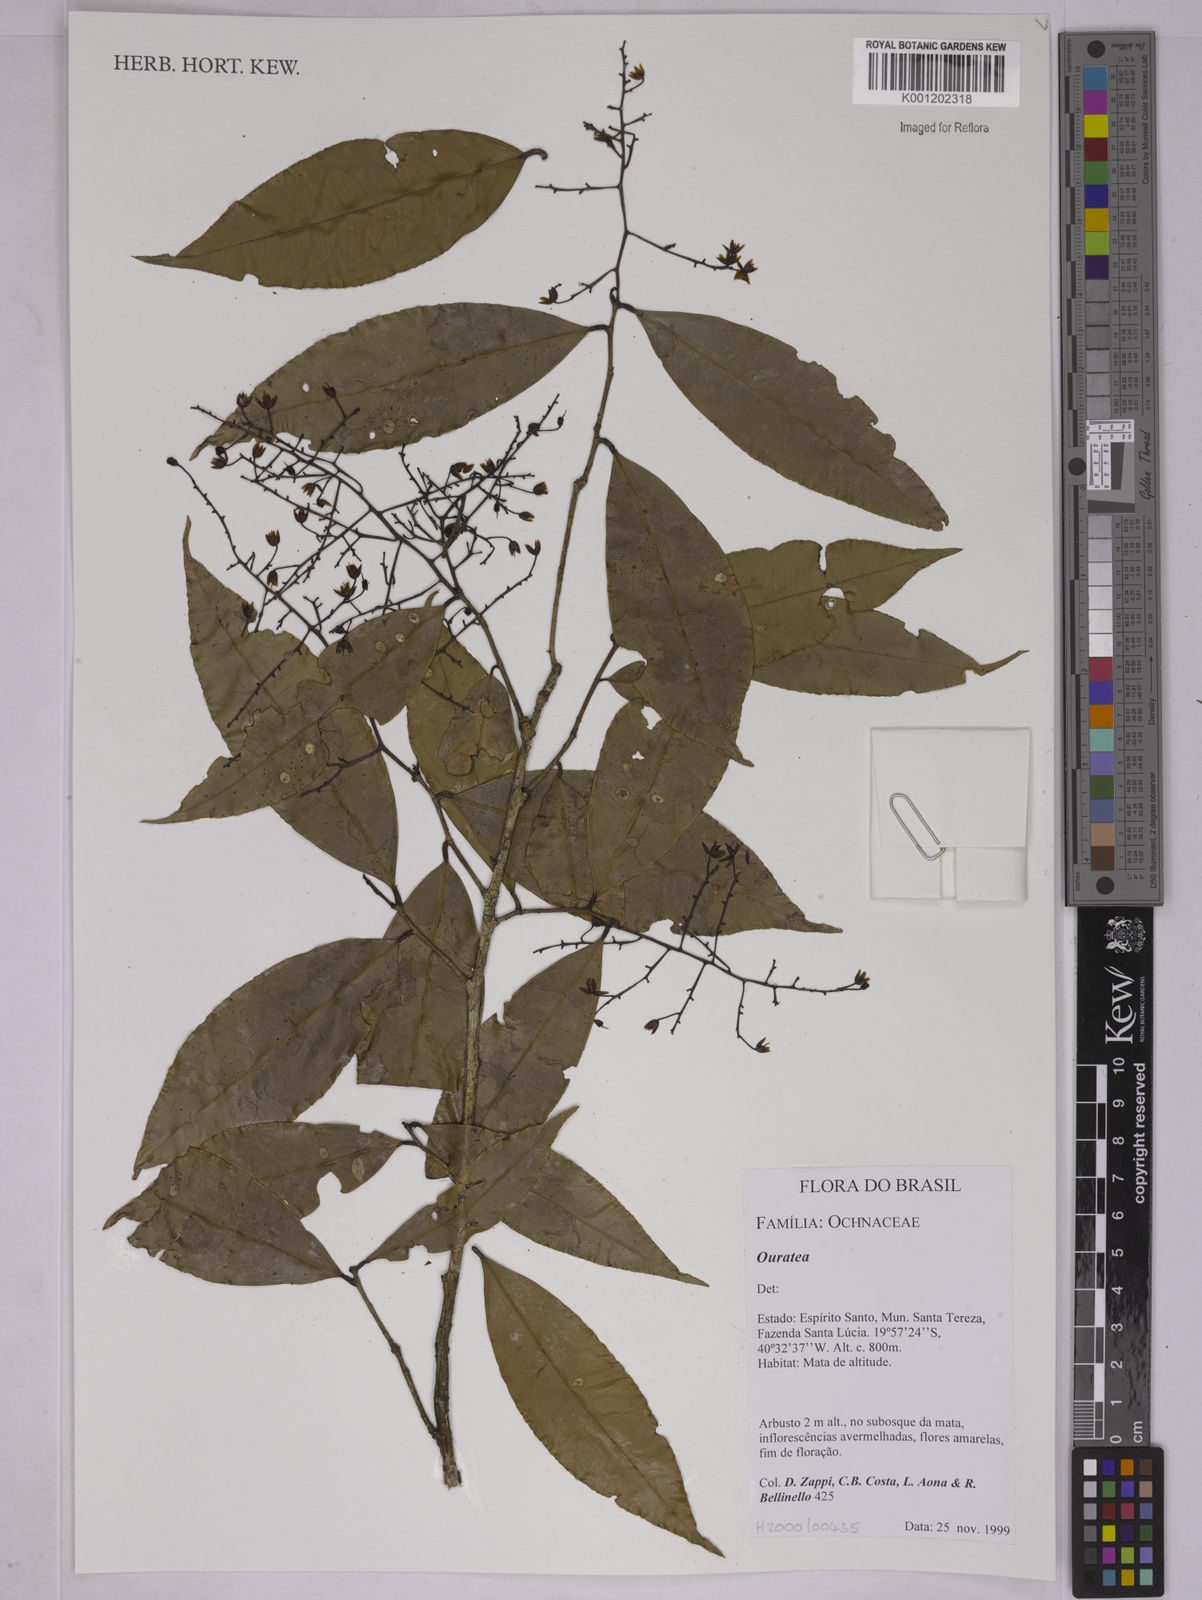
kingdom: Plantae
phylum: Tracheophyta
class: Magnoliopsida
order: Malpighiales
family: Ochnaceae
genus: Ouratea
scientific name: Ouratea
